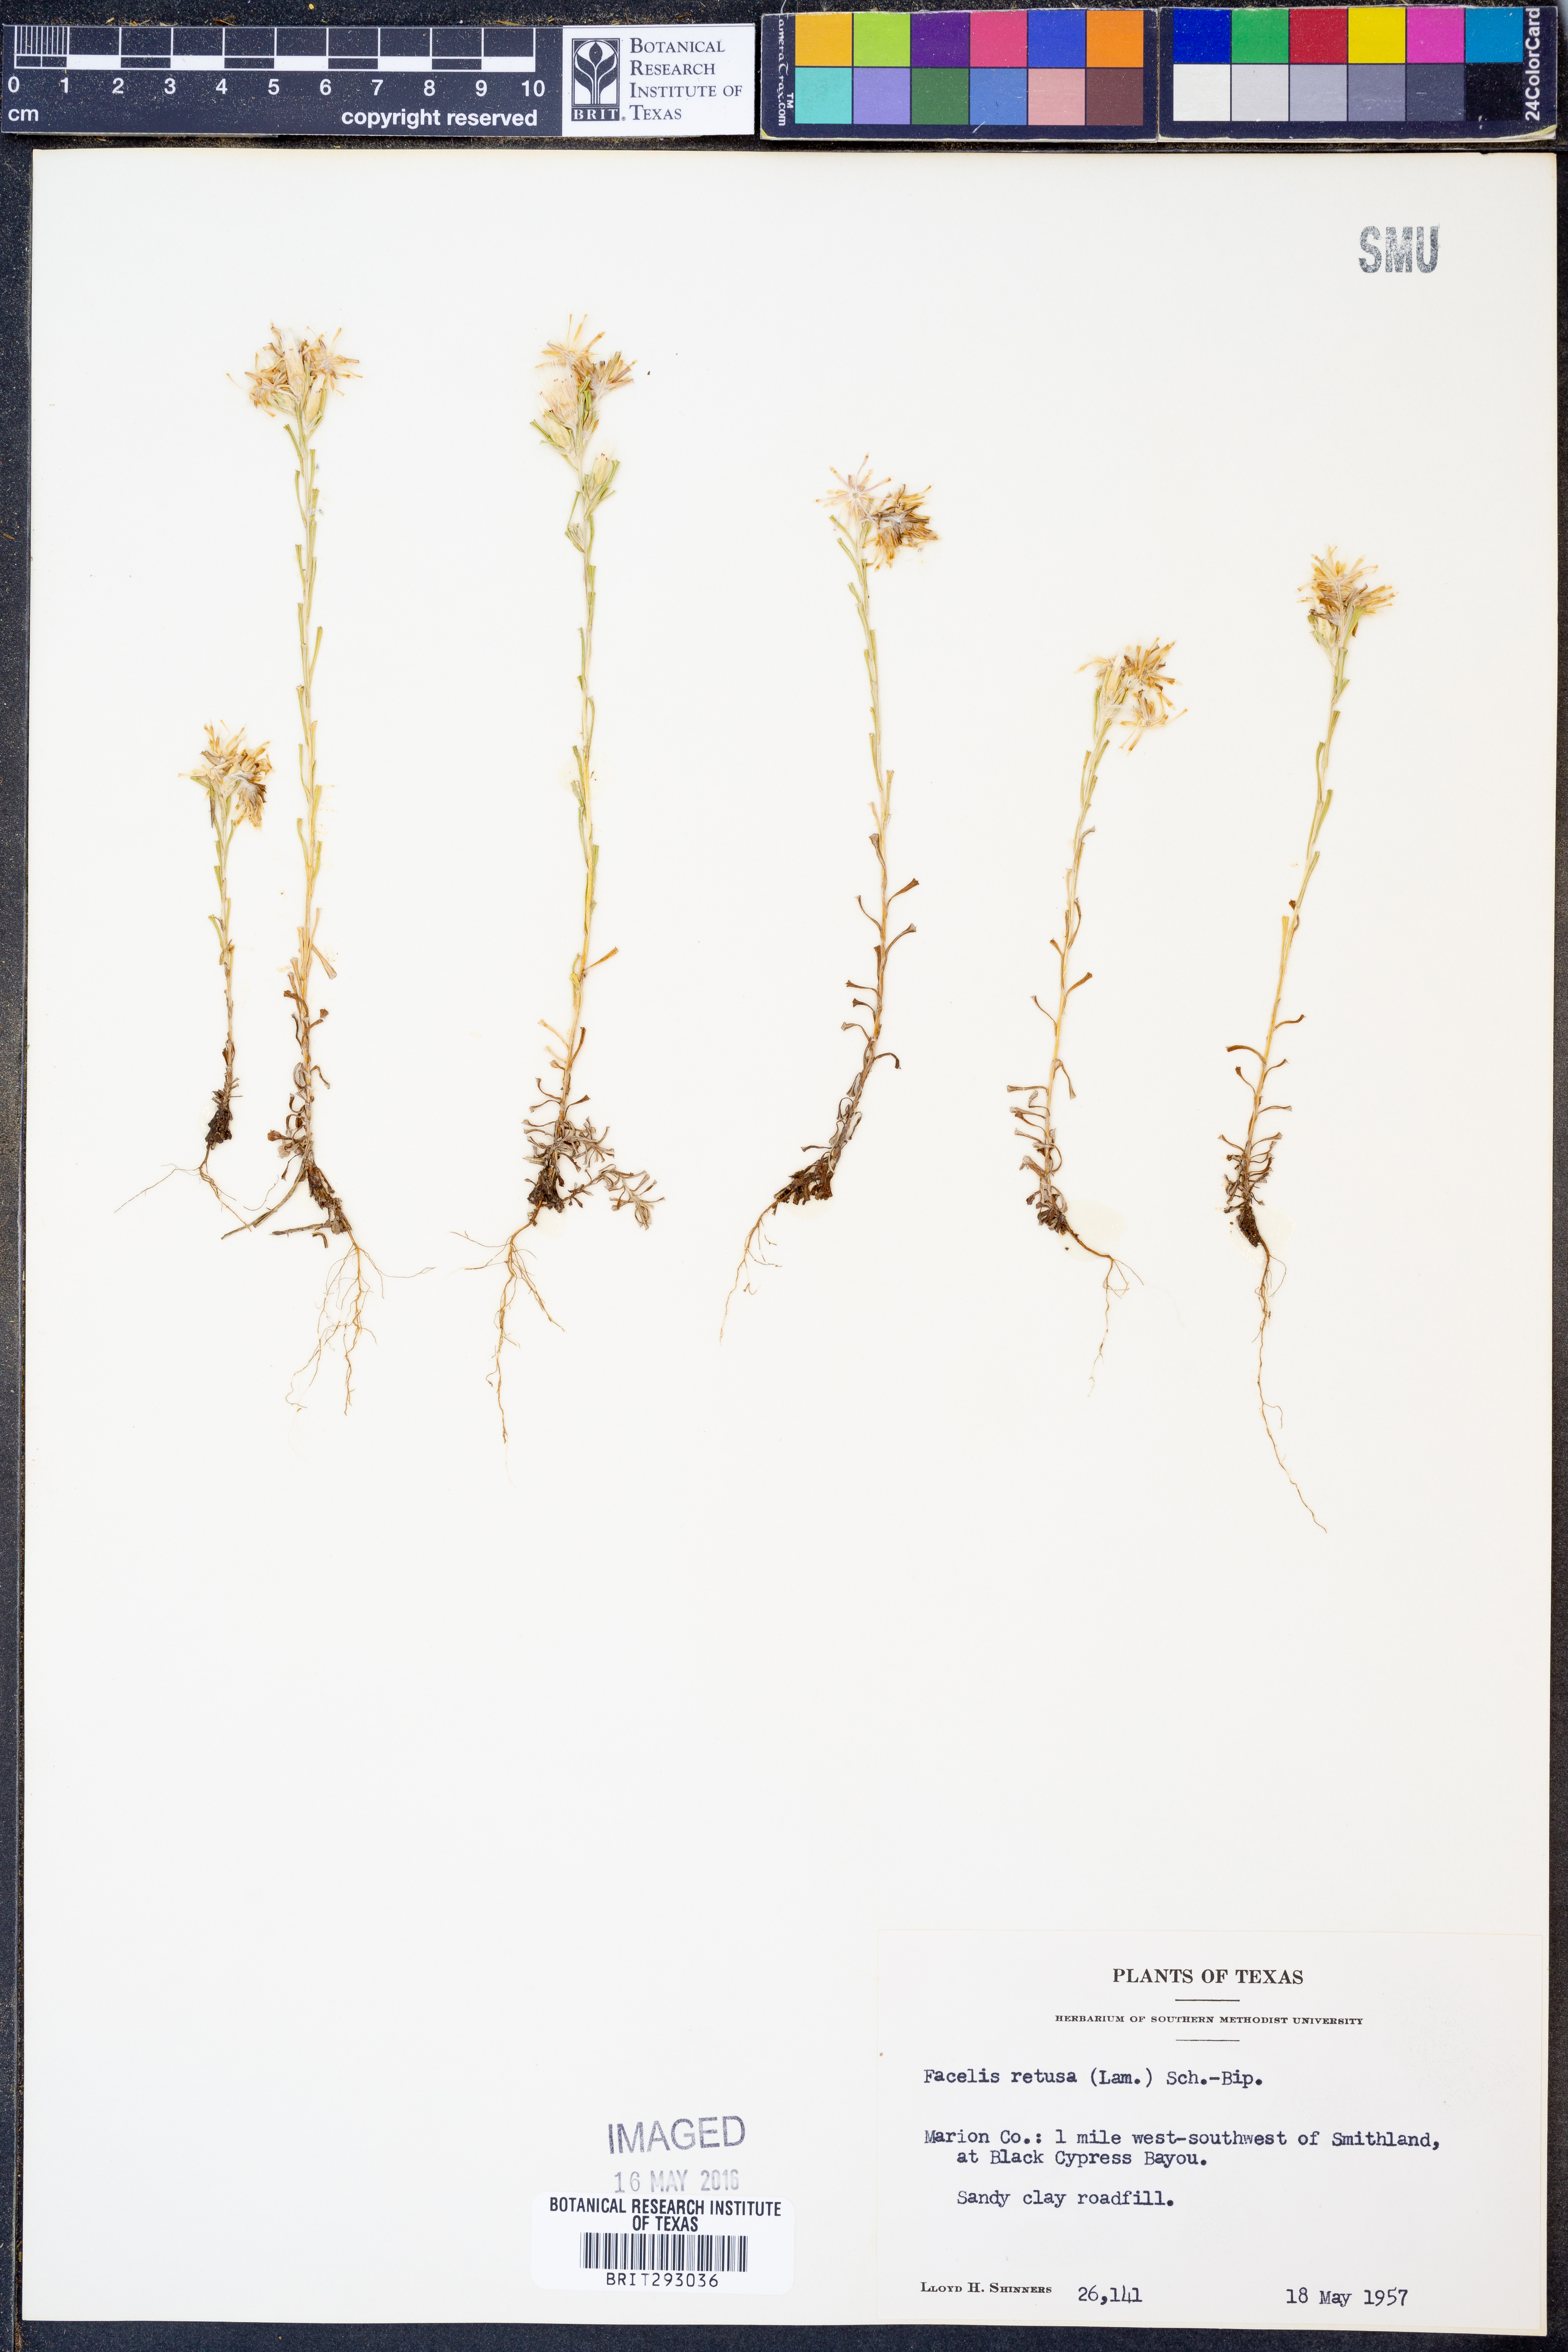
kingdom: Plantae
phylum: Tracheophyta
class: Magnoliopsida
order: Asterales
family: Asteraceae
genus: Facelis
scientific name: Facelis retusa
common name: Annual trampweed
